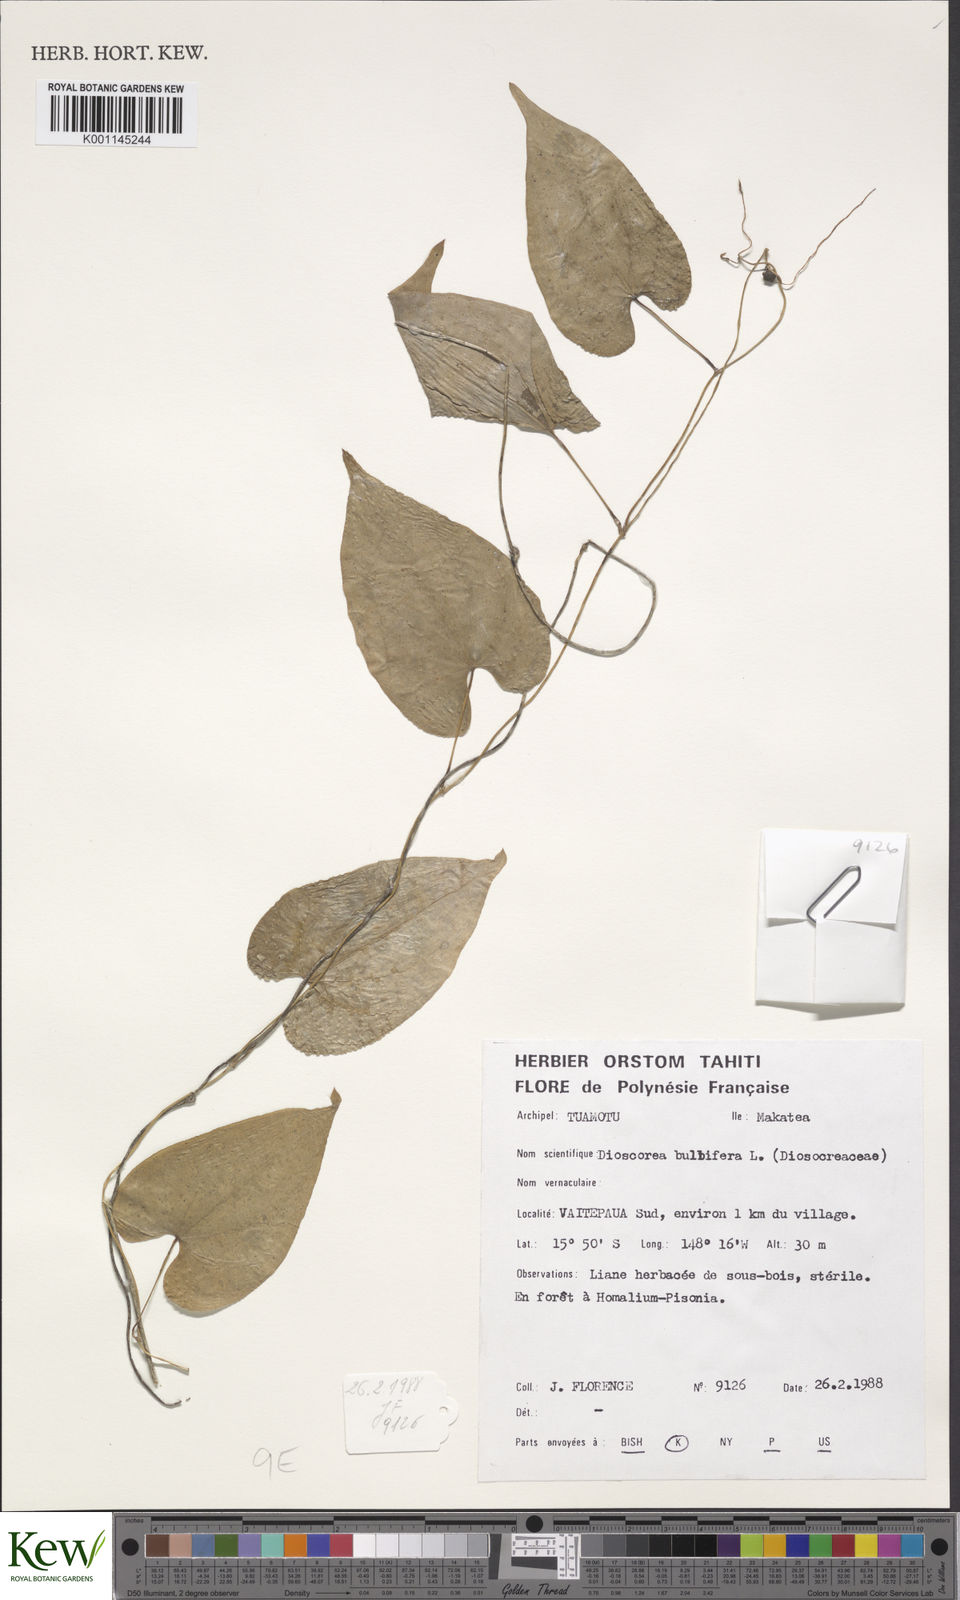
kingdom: Plantae
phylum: Tracheophyta
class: Liliopsida
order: Dioscoreales
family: Dioscoreaceae
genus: Dioscorea
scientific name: Dioscorea bulbifera
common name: Air yam
